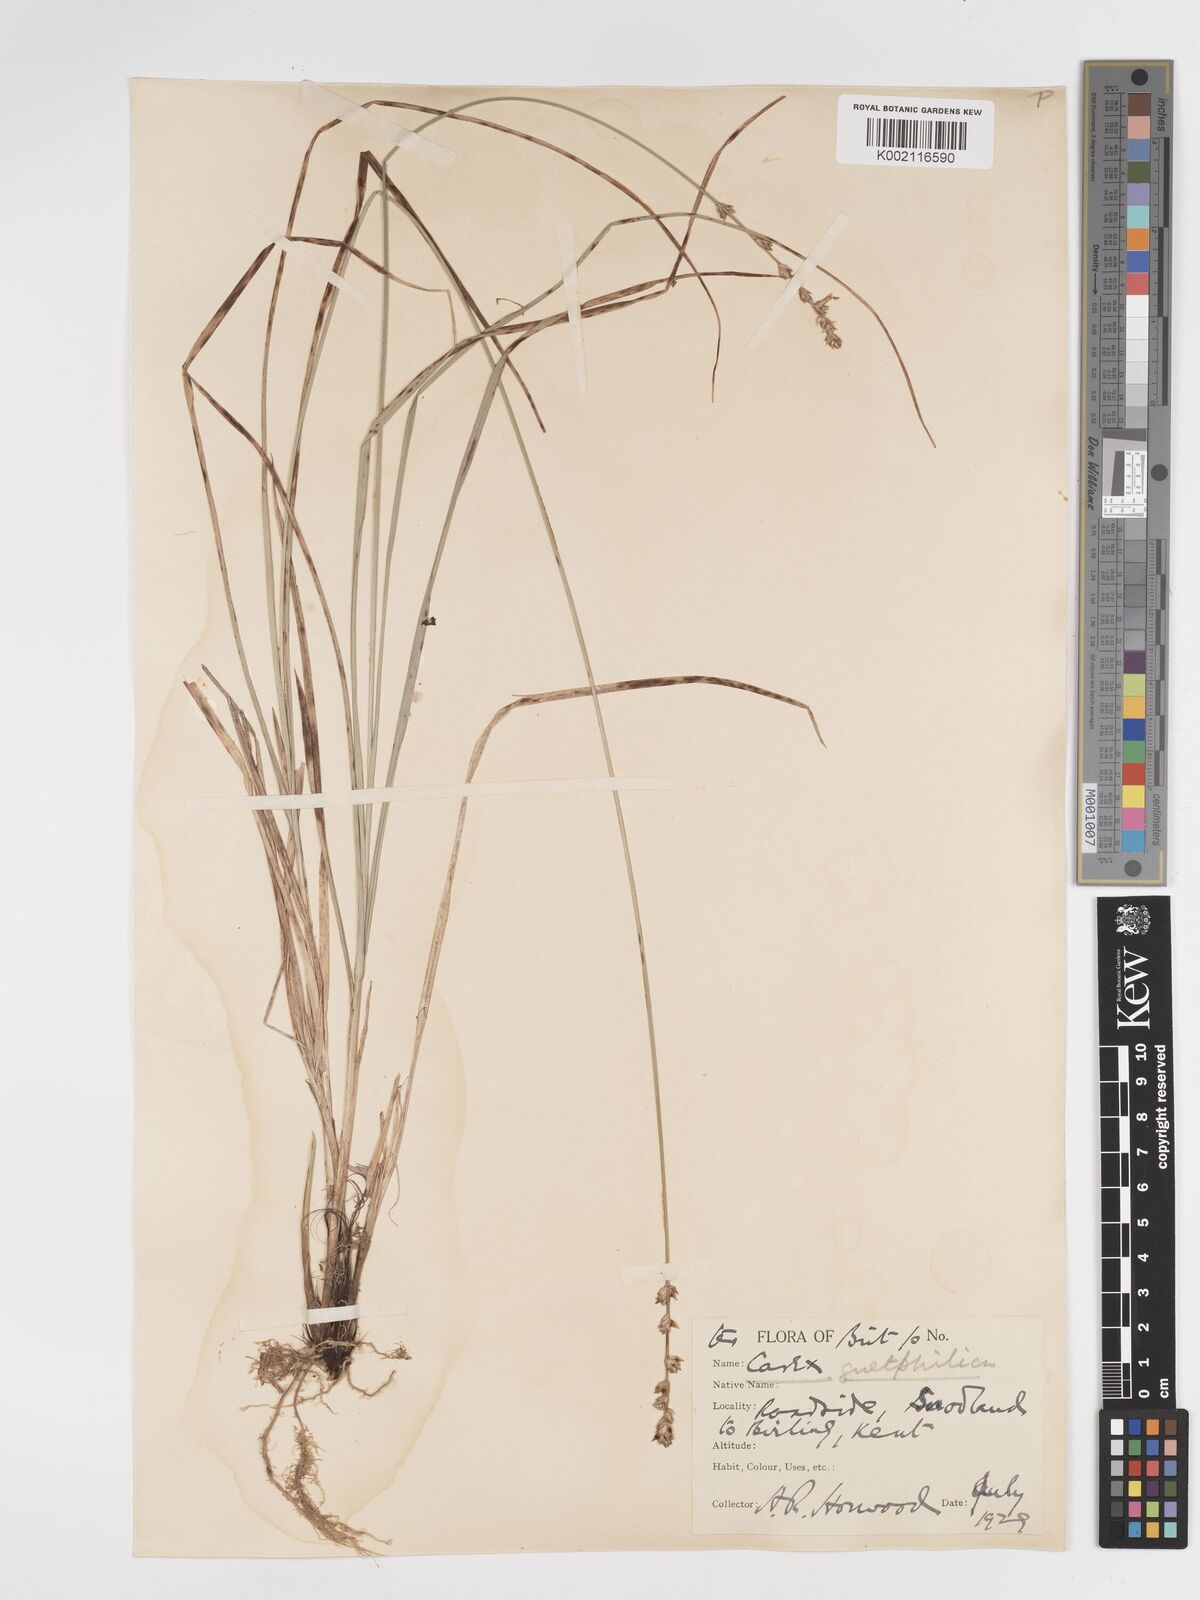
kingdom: Plantae
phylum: Tracheophyta
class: Liliopsida
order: Poales
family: Cyperaceae
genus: Carex
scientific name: Carex divulsa
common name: Grassland sedge
